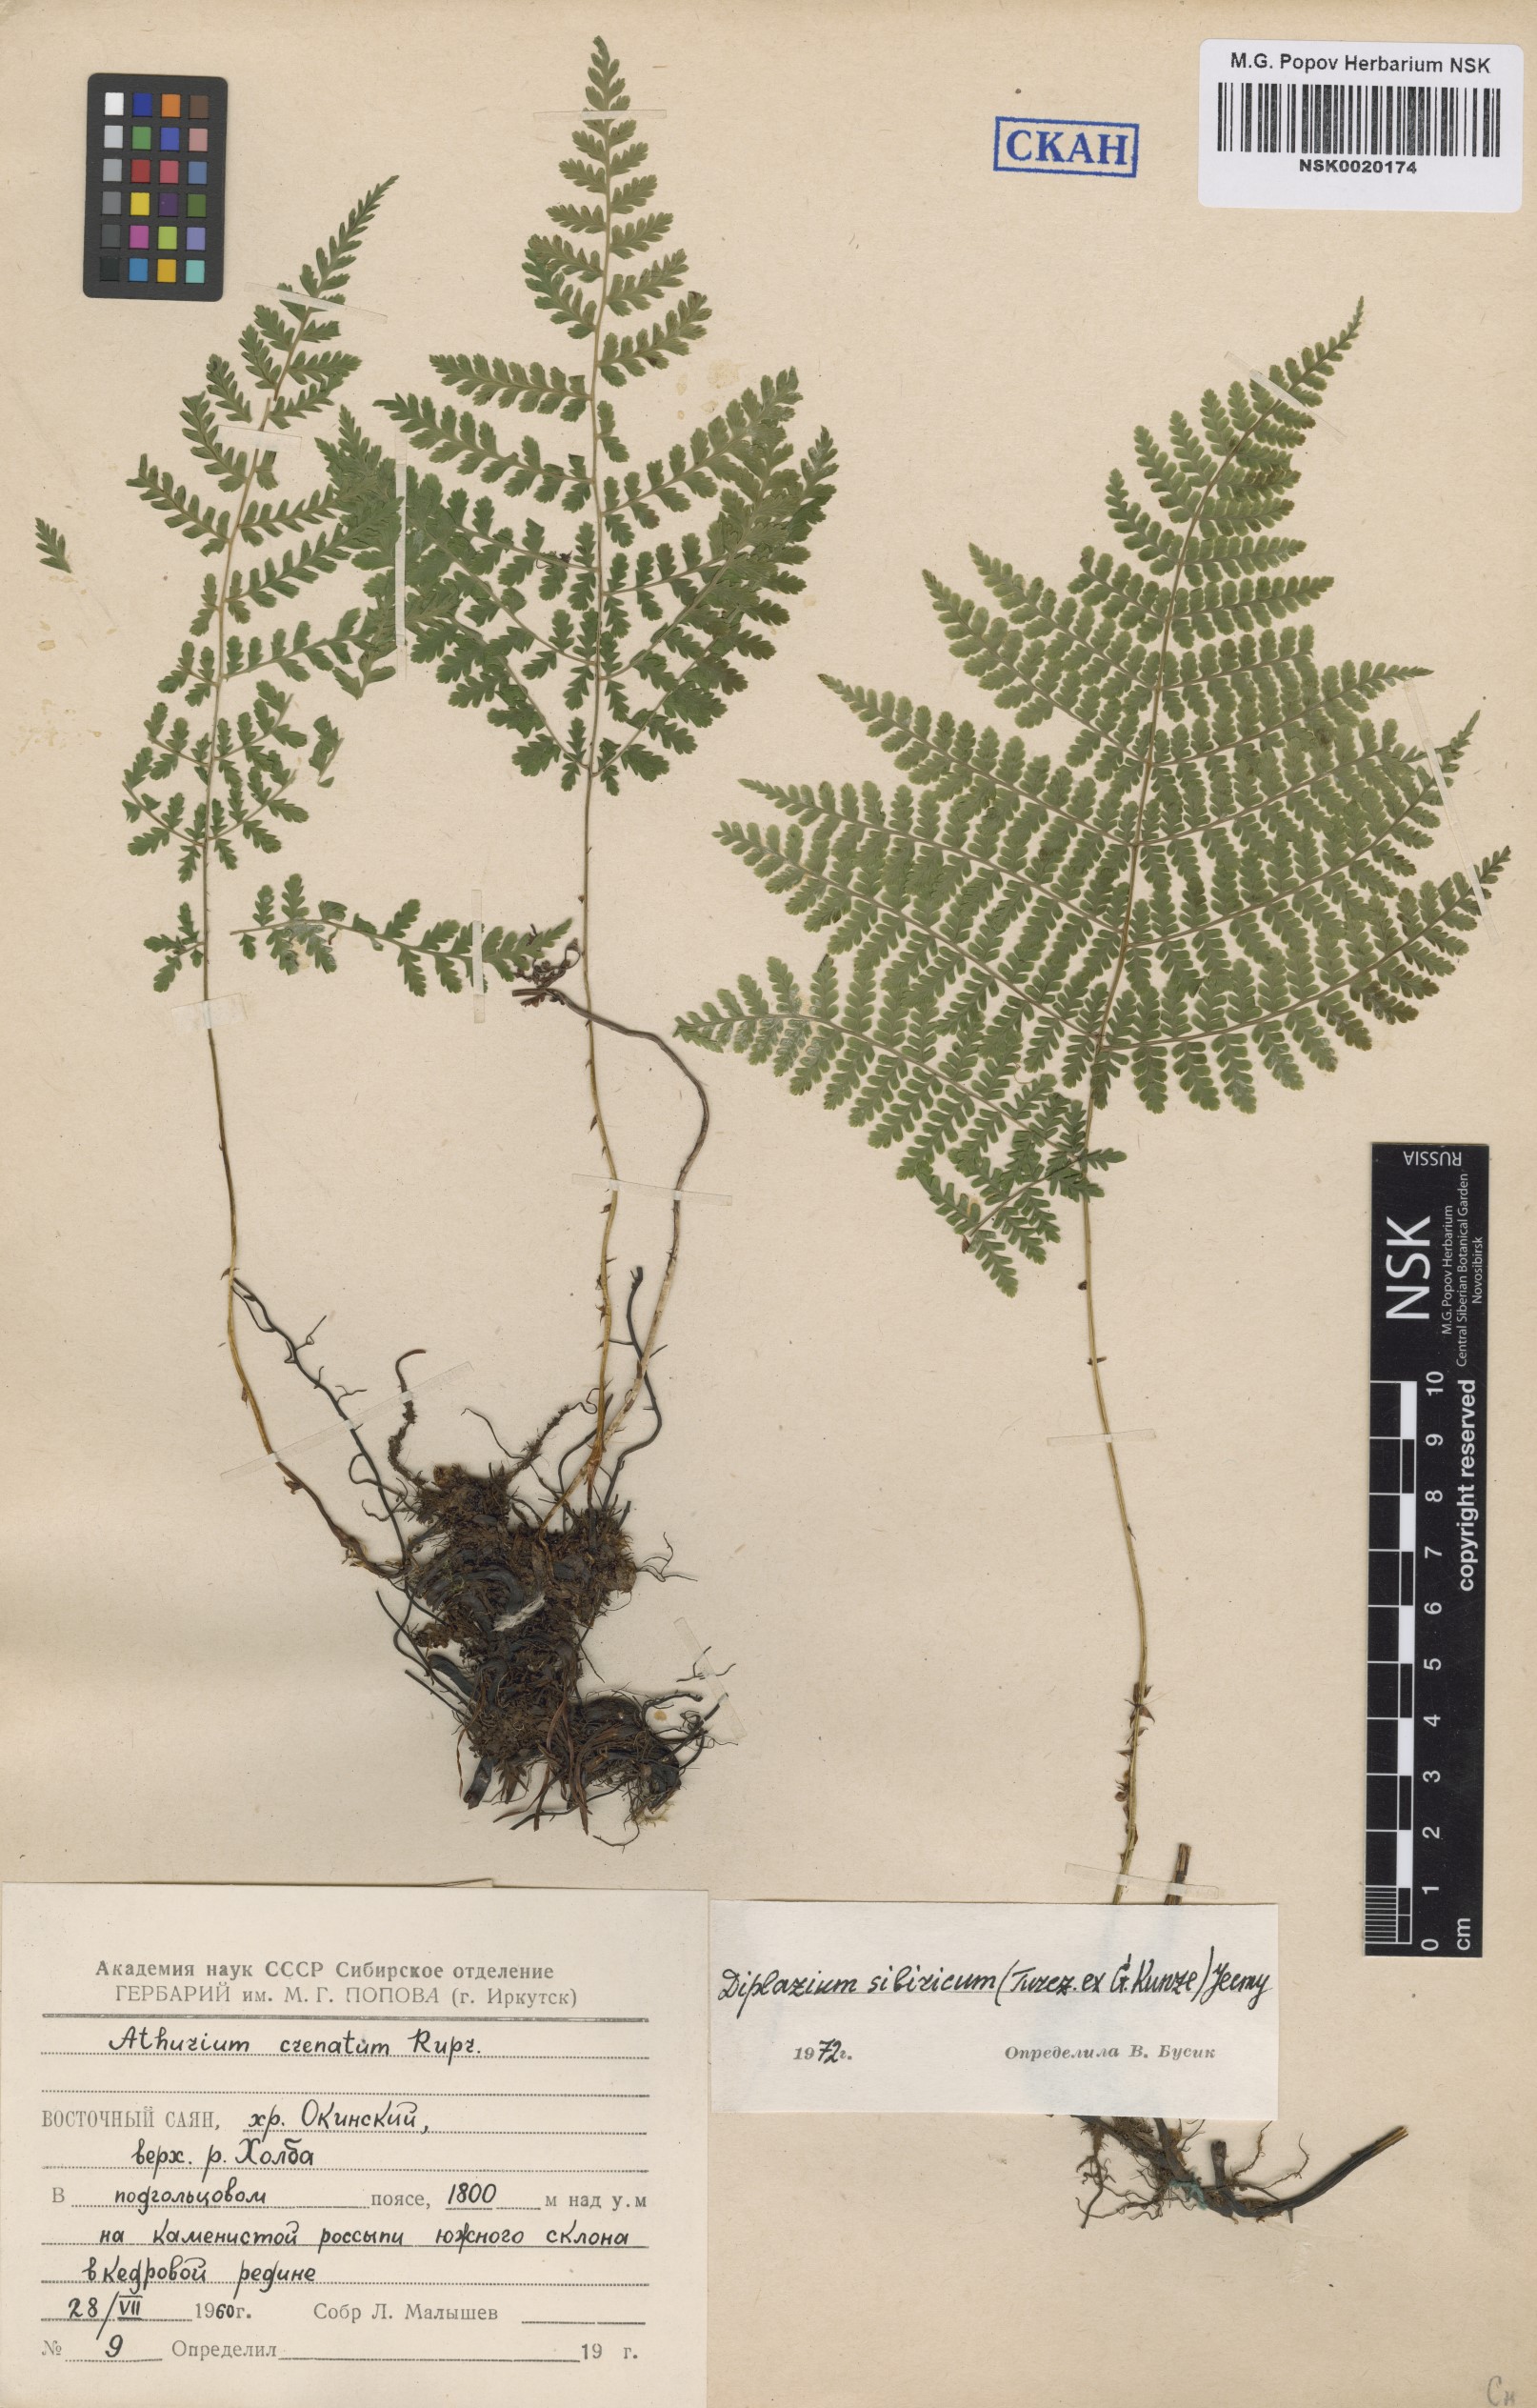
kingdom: Plantae
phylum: Tracheophyta
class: Polypodiopsida
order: Polypodiales
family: Athyriaceae
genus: Diplazium
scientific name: Diplazium sibiricum
